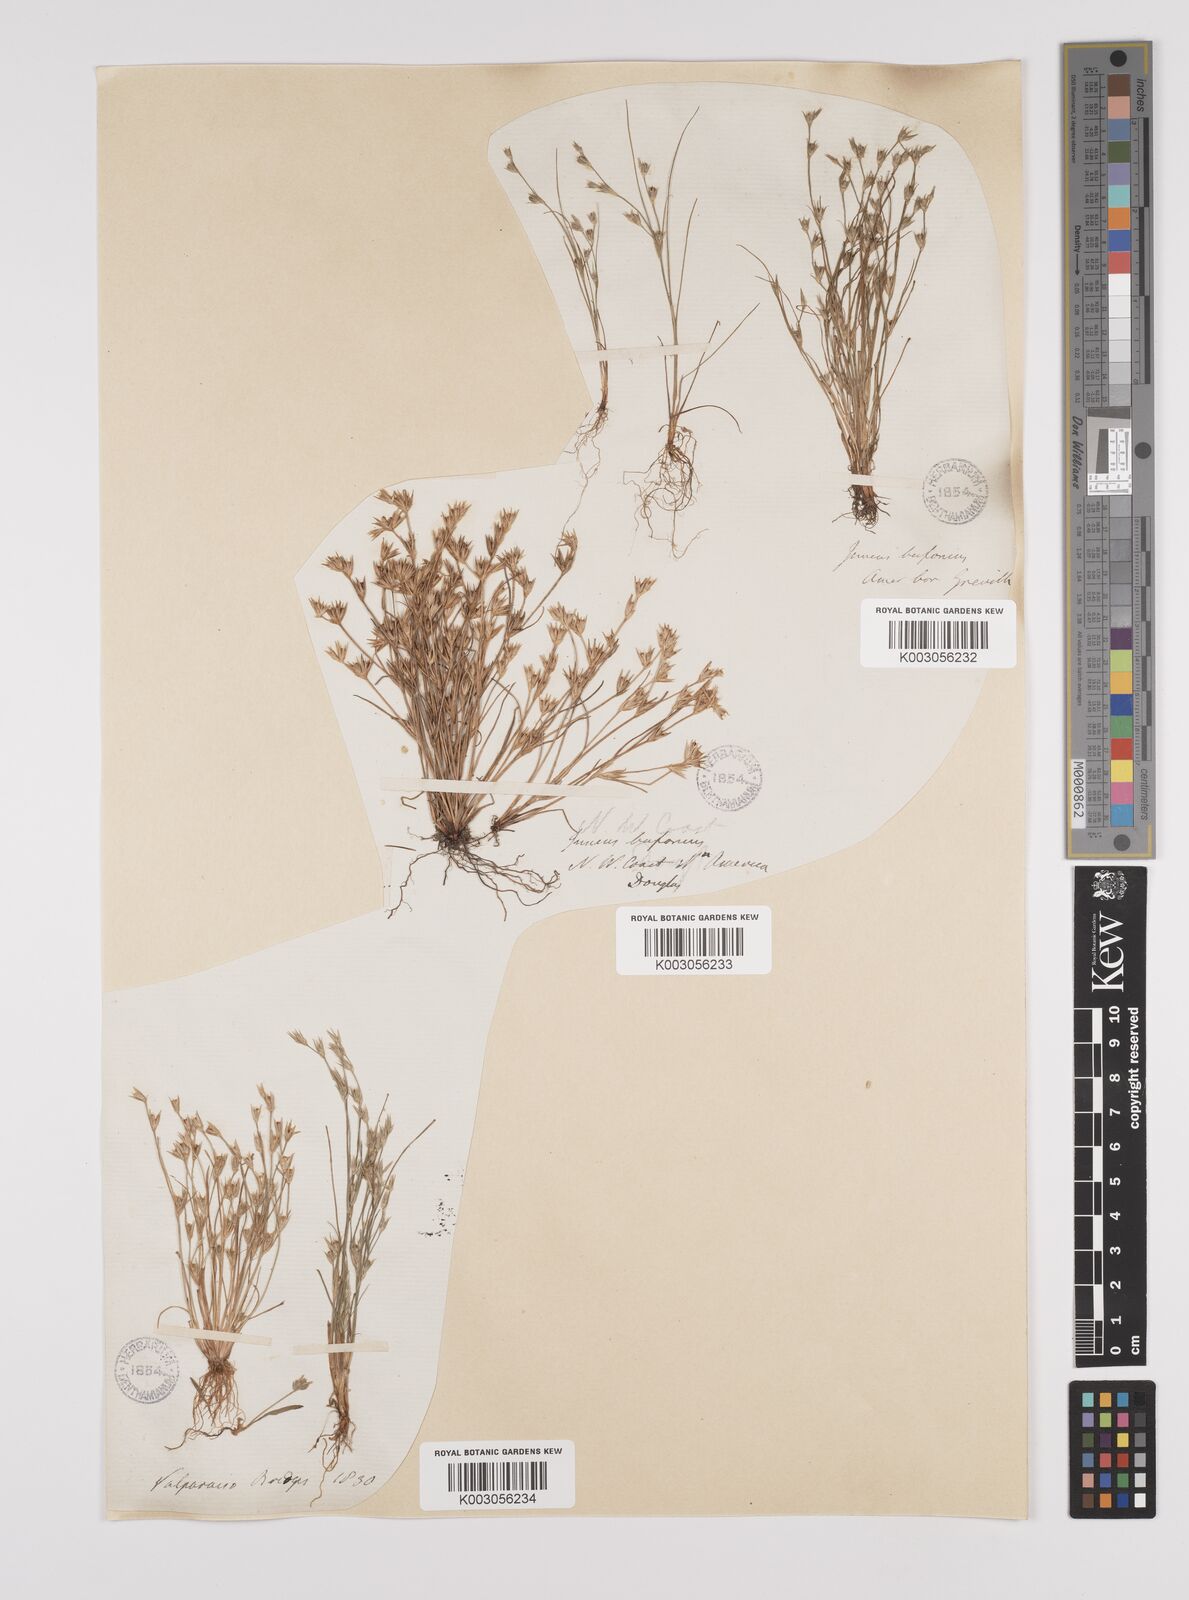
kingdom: Plantae
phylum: Tracheophyta
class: Liliopsida
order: Poales
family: Juncaceae
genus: Juncus
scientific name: Juncus bufonius
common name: Toad rush
